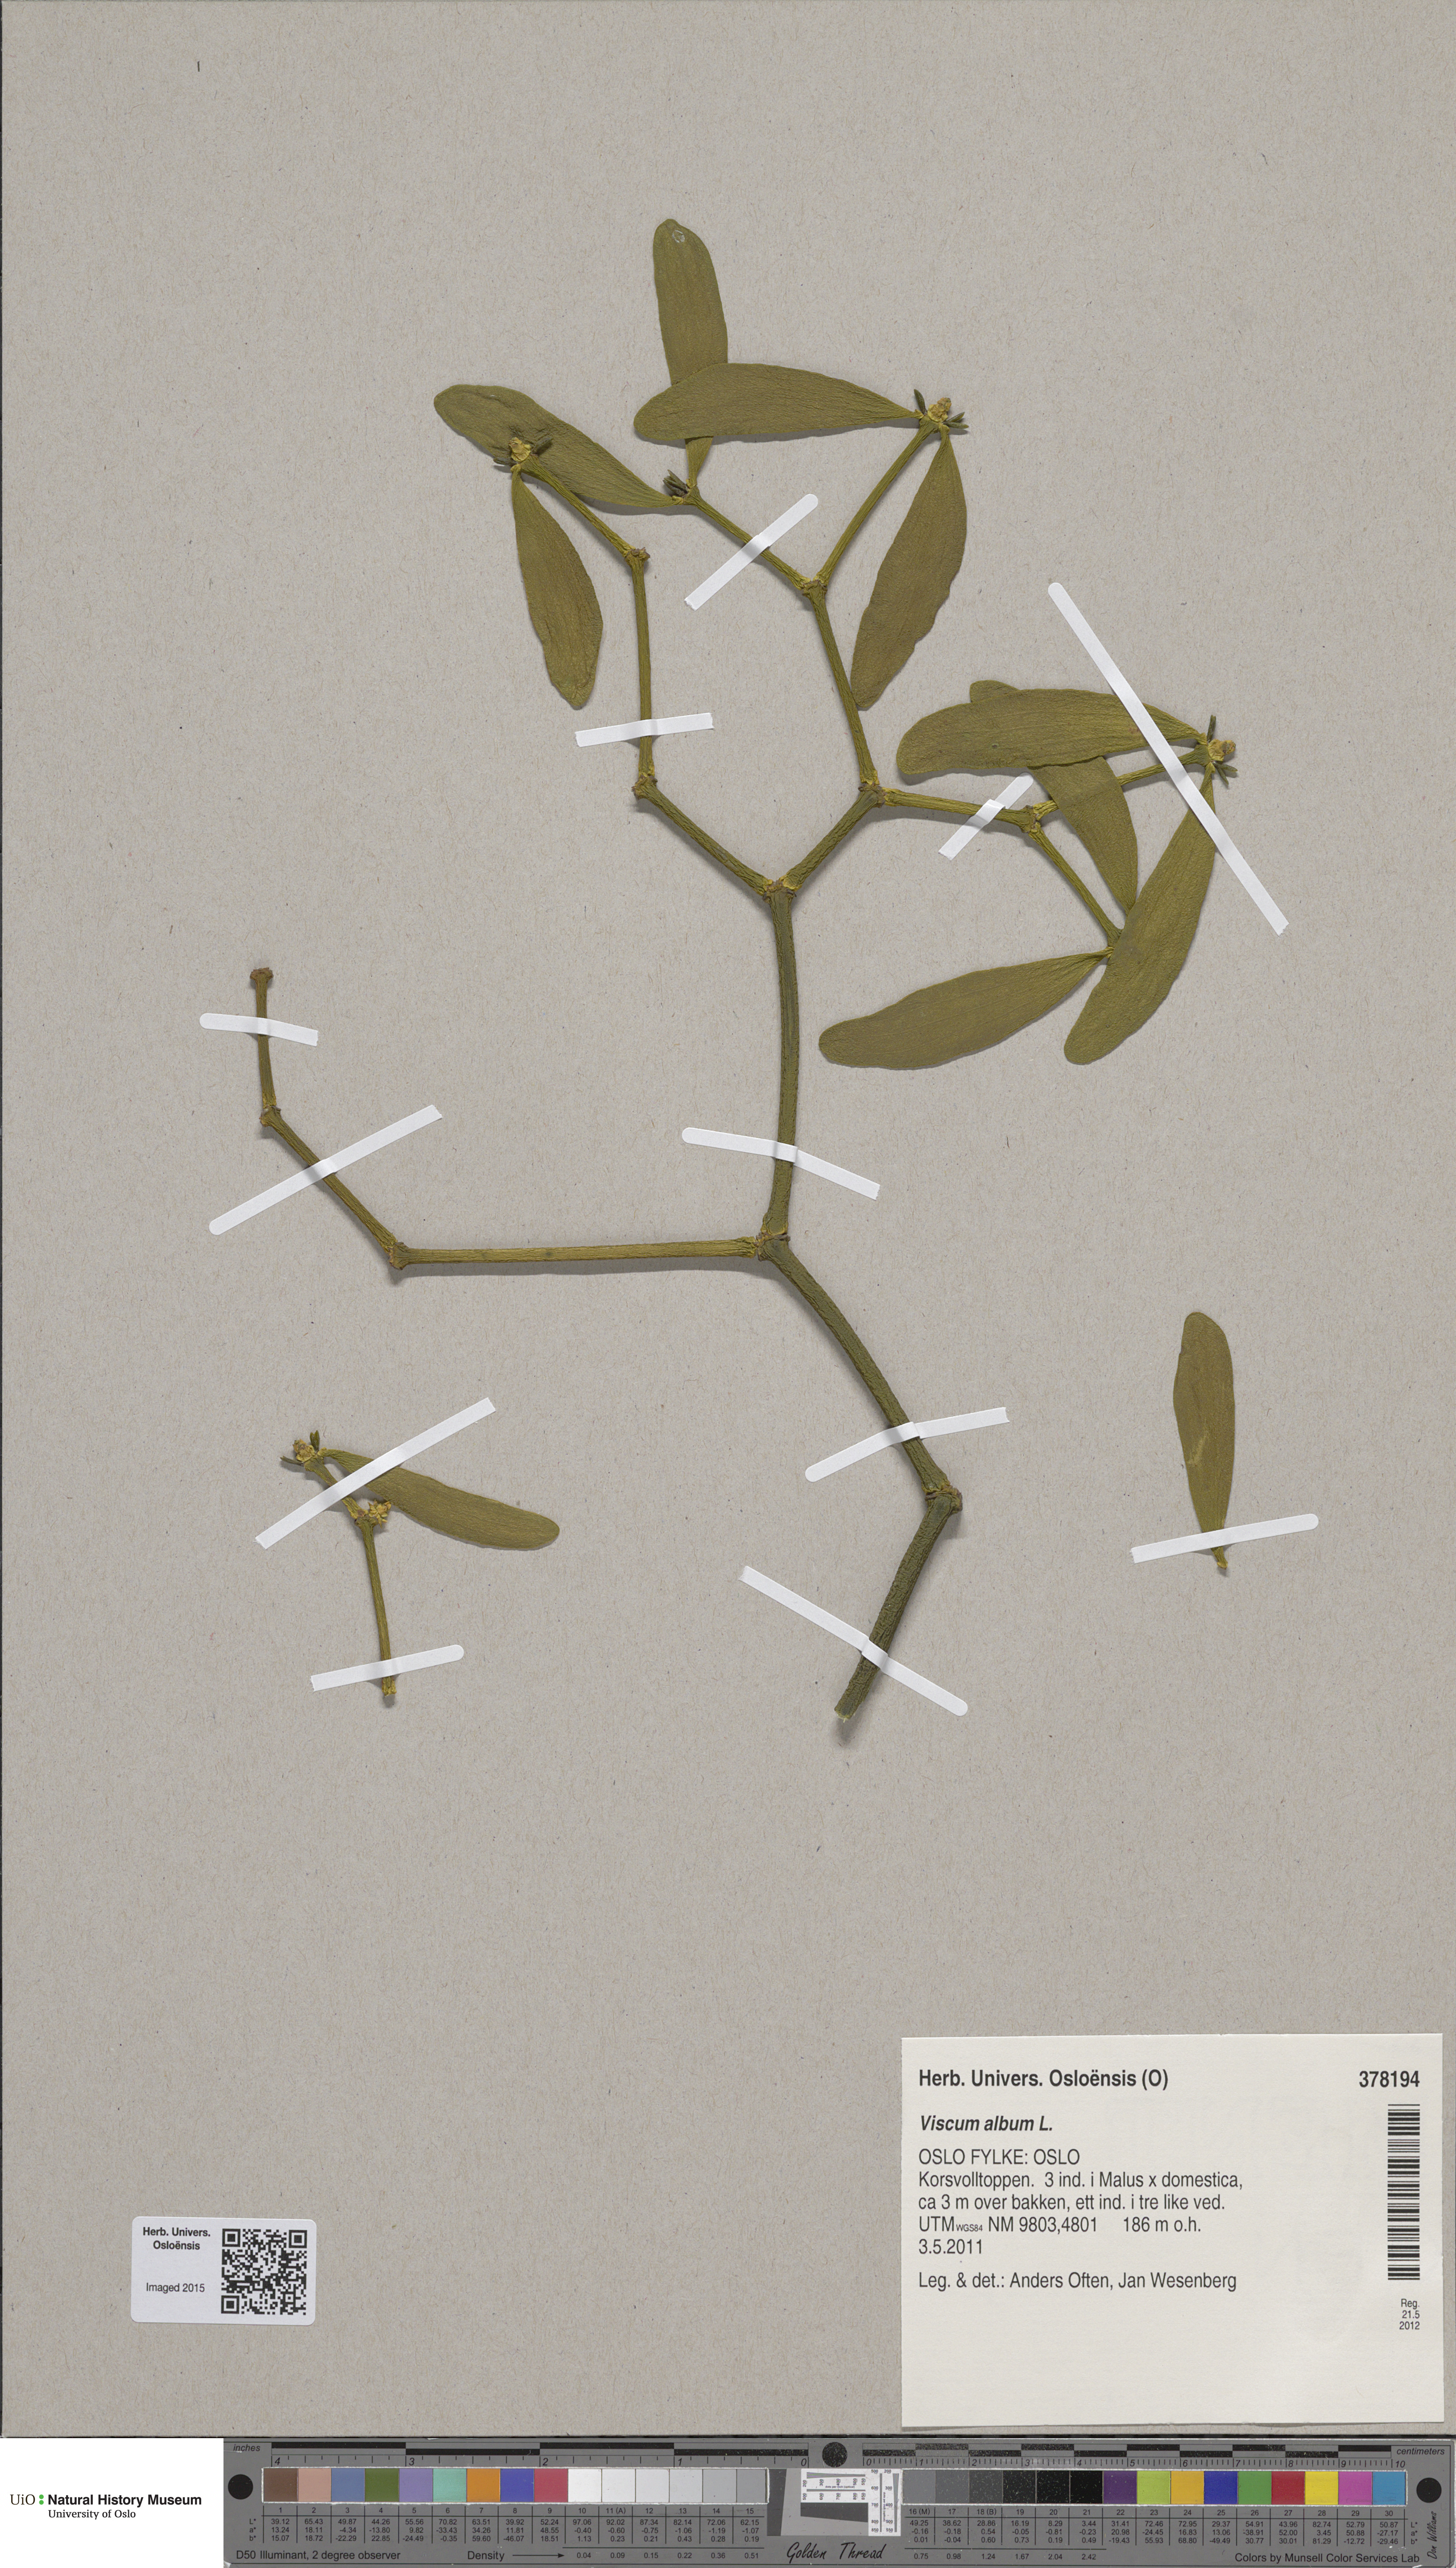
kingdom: Plantae
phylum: Tracheophyta
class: Magnoliopsida
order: Santalales
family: Viscaceae
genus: Viscum
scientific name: Viscum album
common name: Mistletoe
